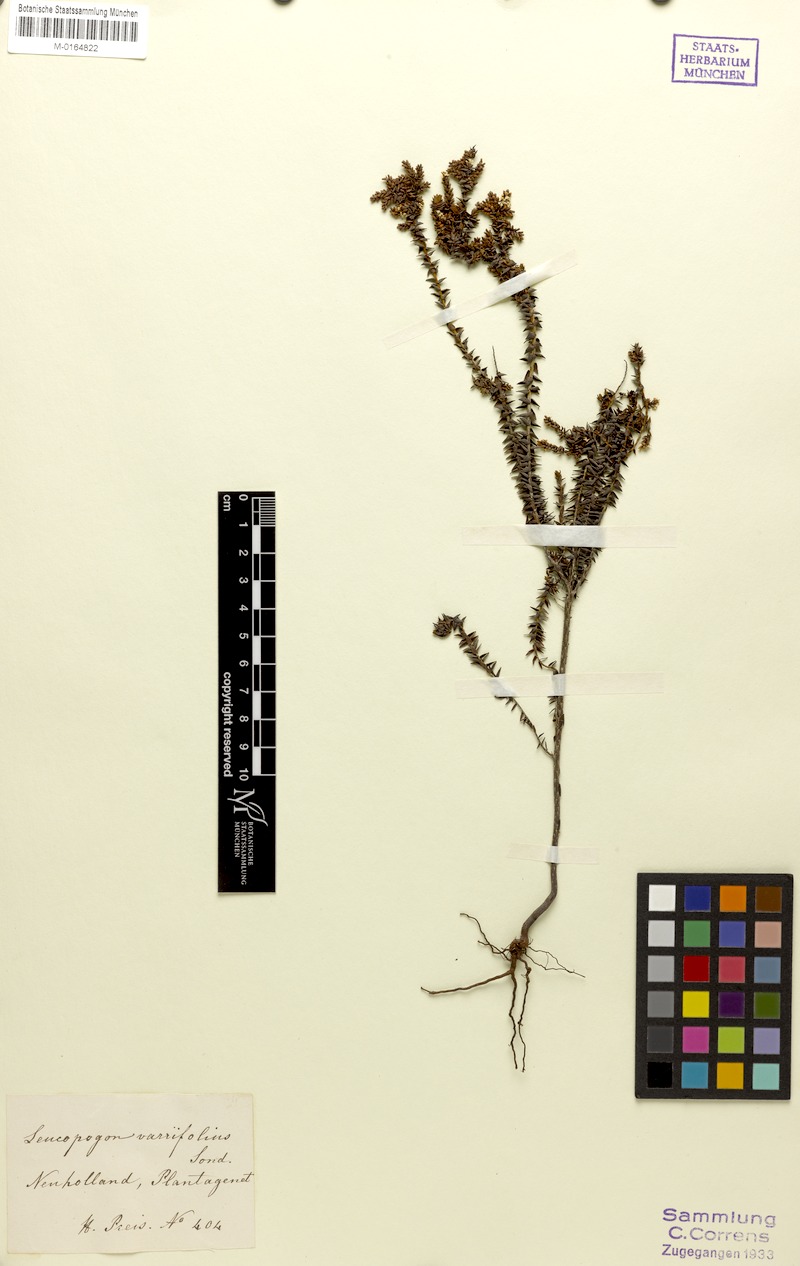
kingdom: Plantae
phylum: Tracheophyta
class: Magnoliopsida
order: Ericales
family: Ericaceae
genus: Leucopogon
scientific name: Leucopogon glabellus
